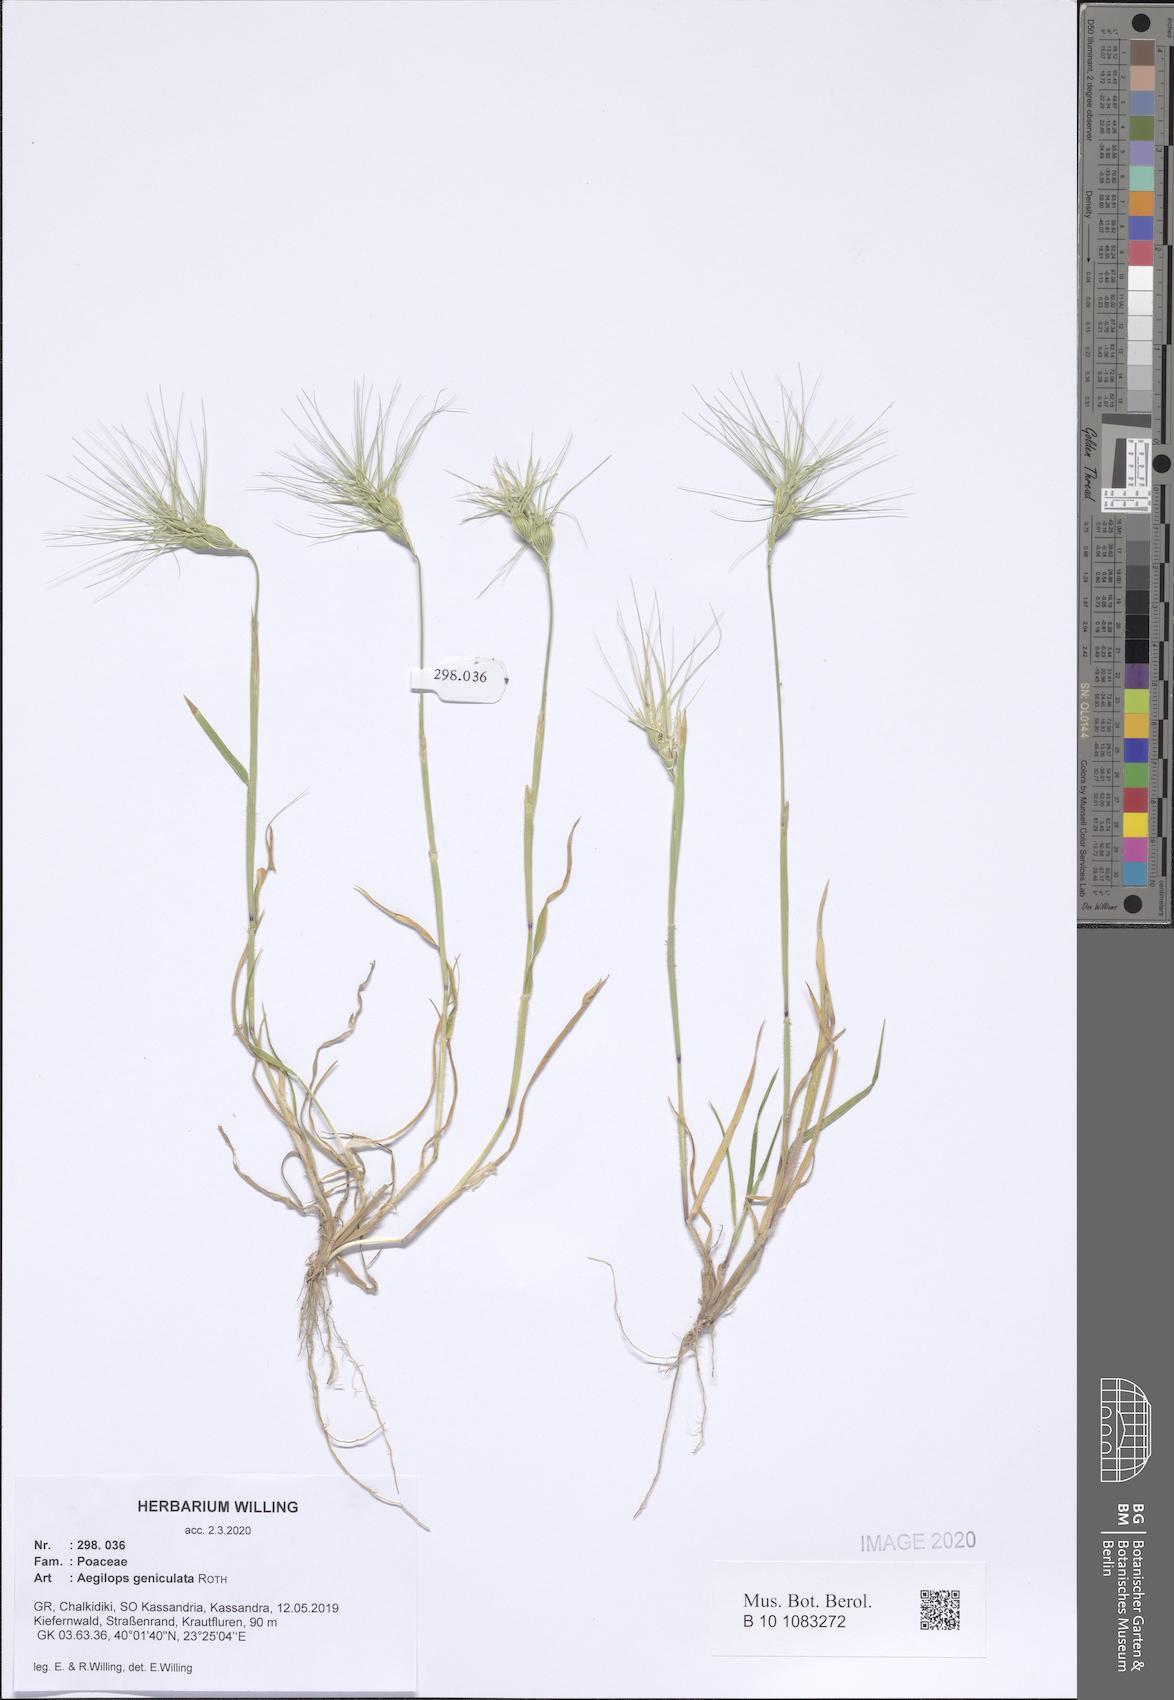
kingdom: Plantae
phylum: Tracheophyta
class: Liliopsida
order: Poales
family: Poaceae
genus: Aegilops
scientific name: Aegilops geniculata
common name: Ovate goat grass
